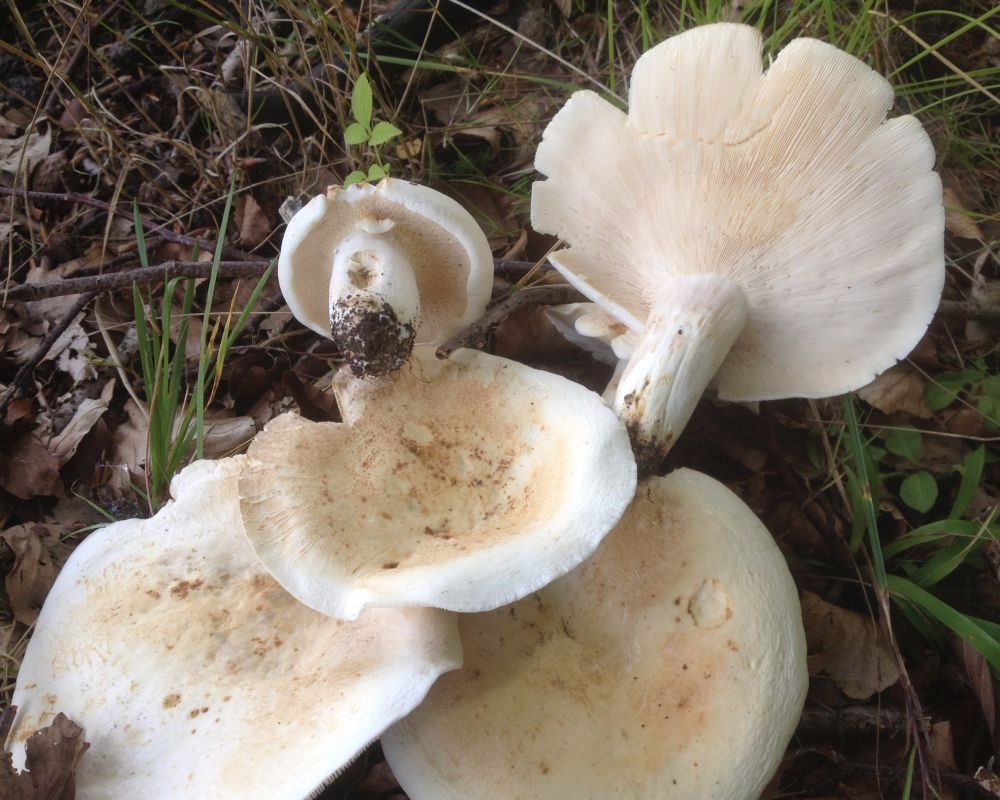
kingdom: Fungi
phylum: Basidiomycota
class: Agaricomycetes
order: Russulales
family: Russulaceae
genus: Lactifluus
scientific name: Lactifluus piperatus
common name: peber-mælkehat
